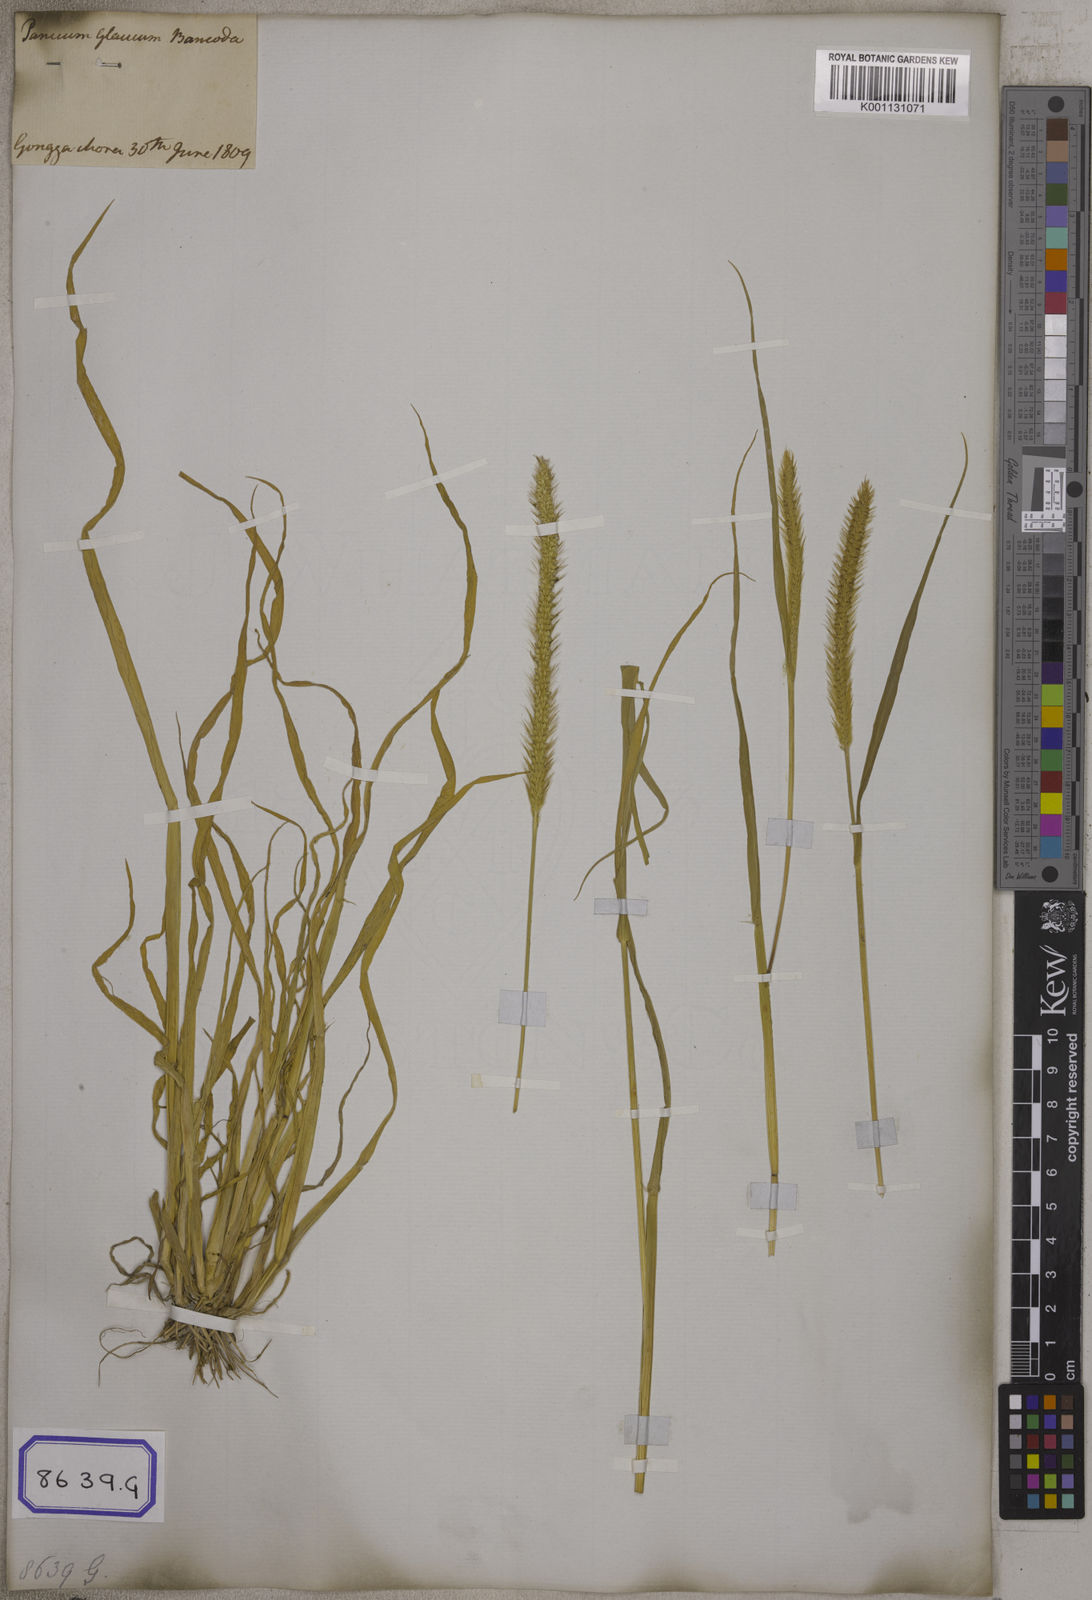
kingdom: Plantae
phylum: Tracheophyta
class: Liliopsida
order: Poales
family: Poaceae
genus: Cenchrus
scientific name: Cenchrus americanus
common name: Pearl millet
